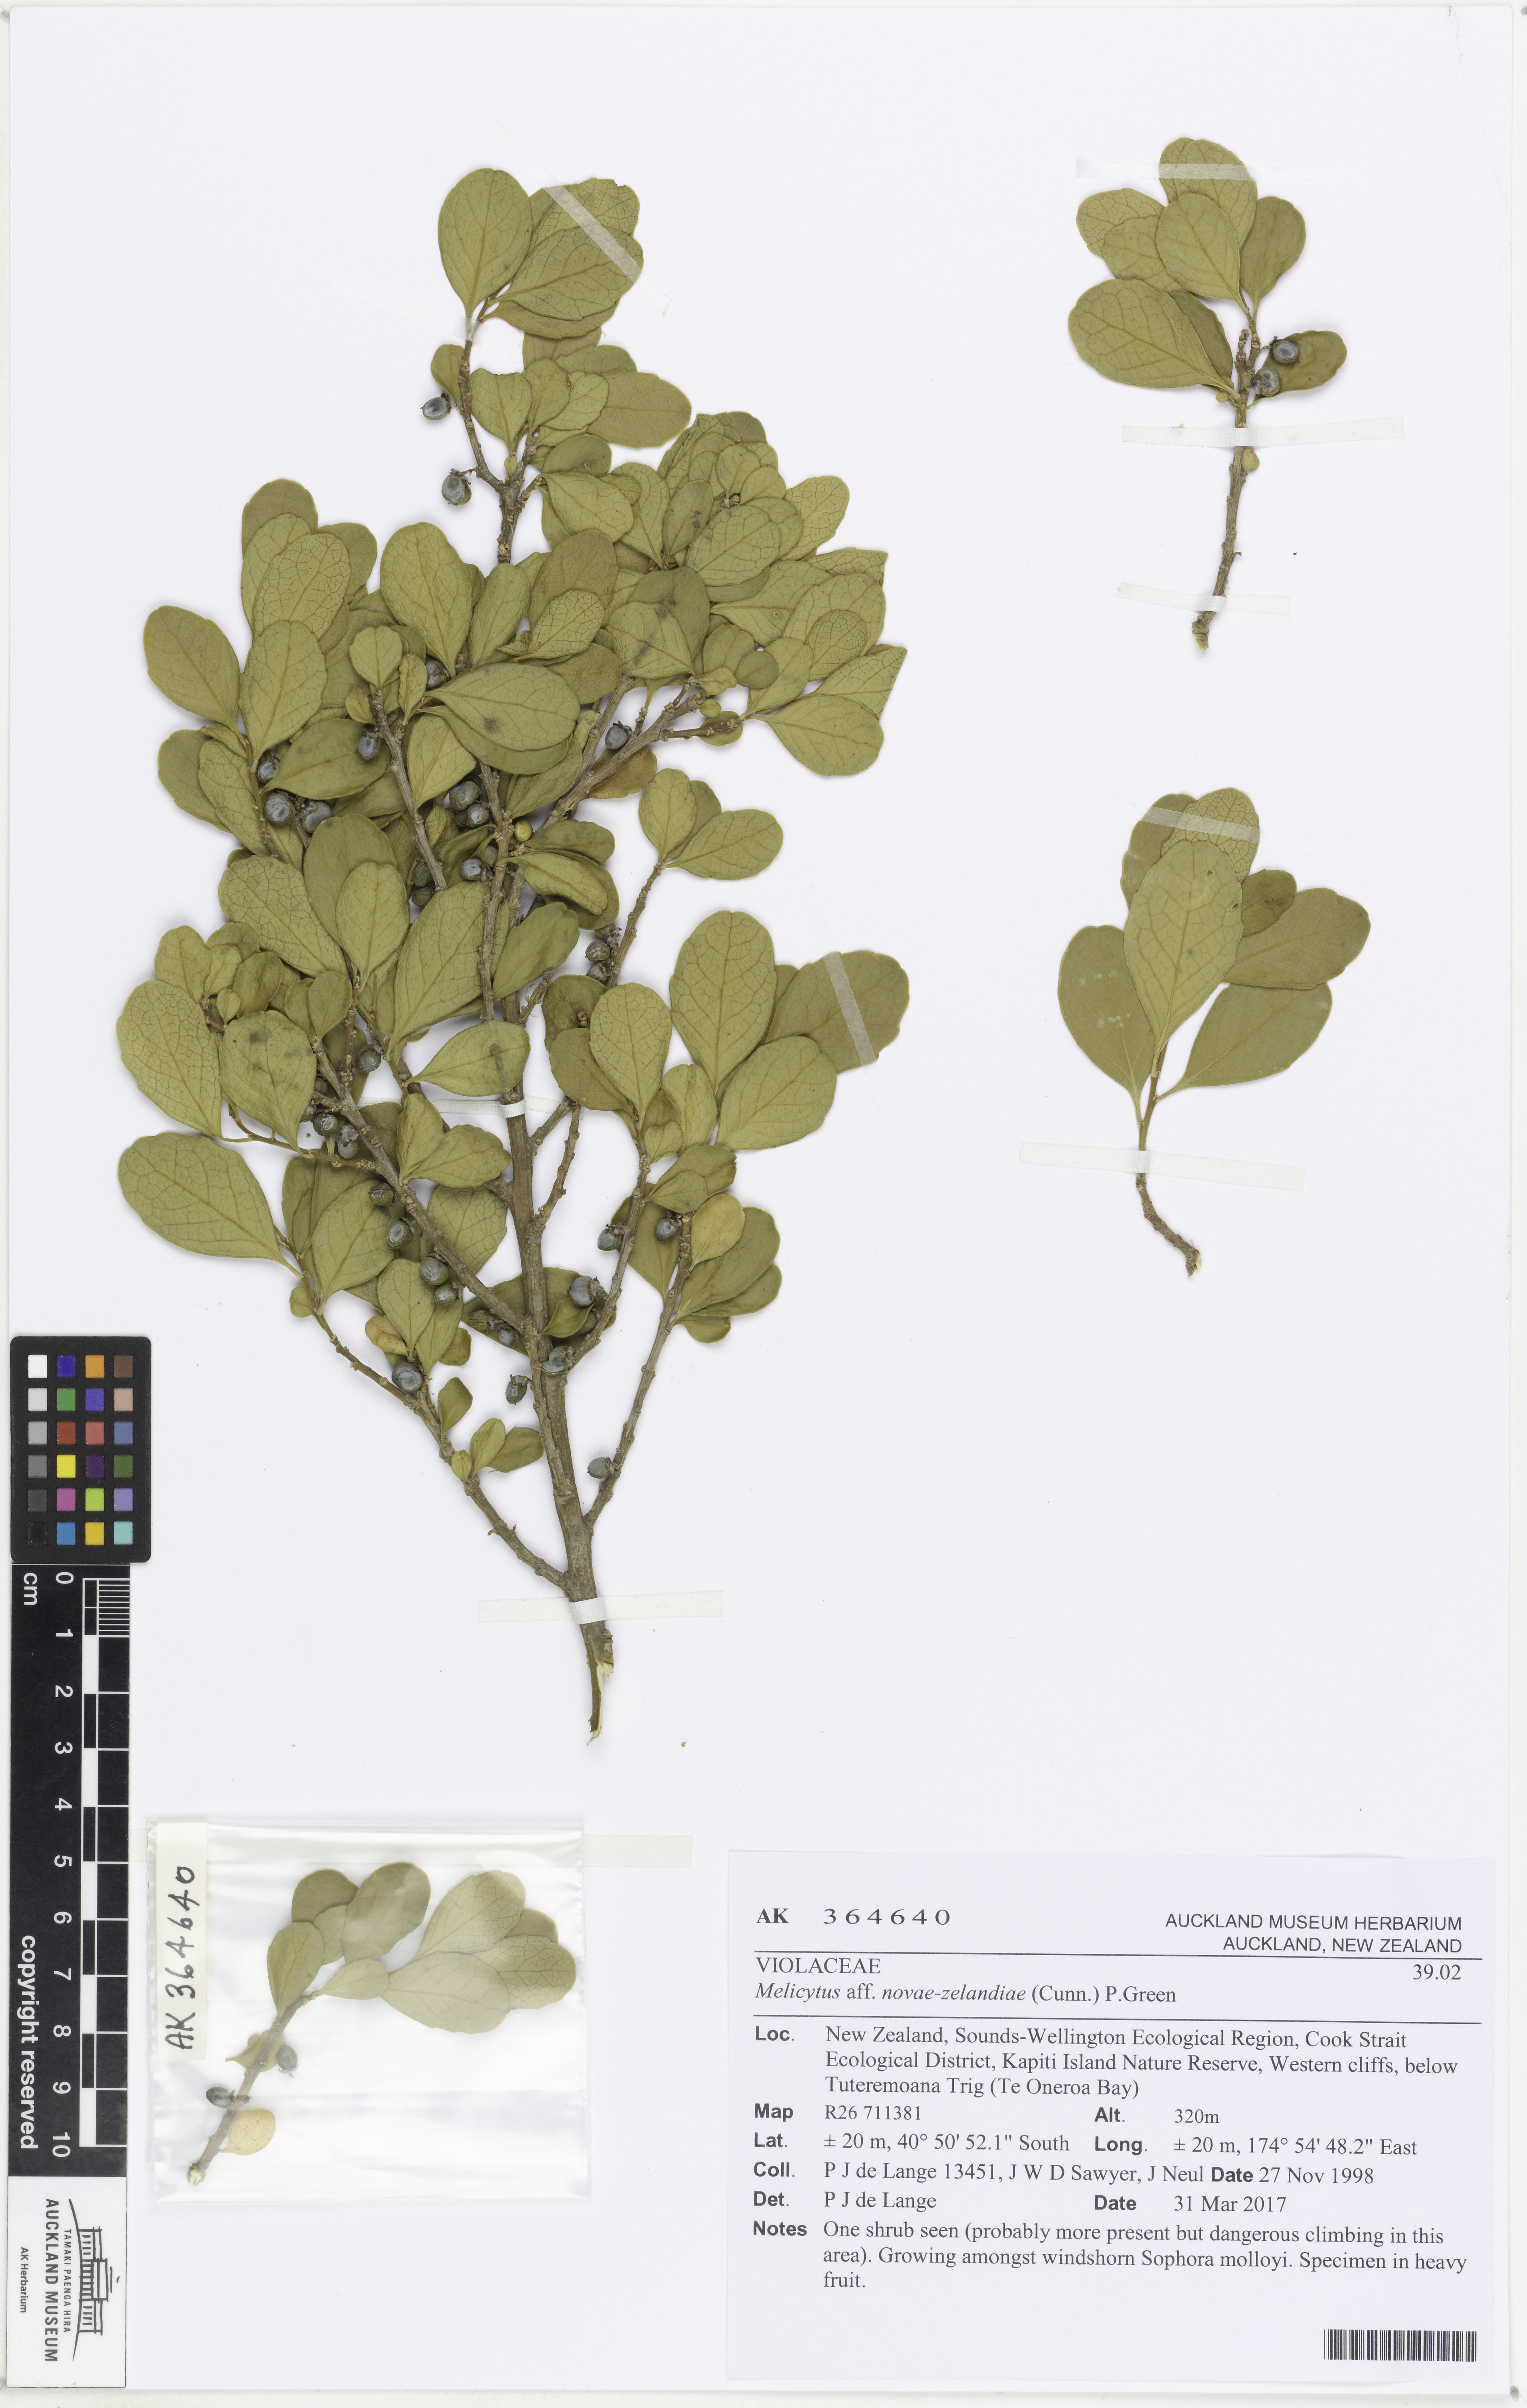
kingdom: Plantae
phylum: Tracheophyta
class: Magnoliopsida
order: Malpighiales
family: Violaceae
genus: Melicytus
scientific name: Melicytus novae-zelandiae
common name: Coastal mahoe
